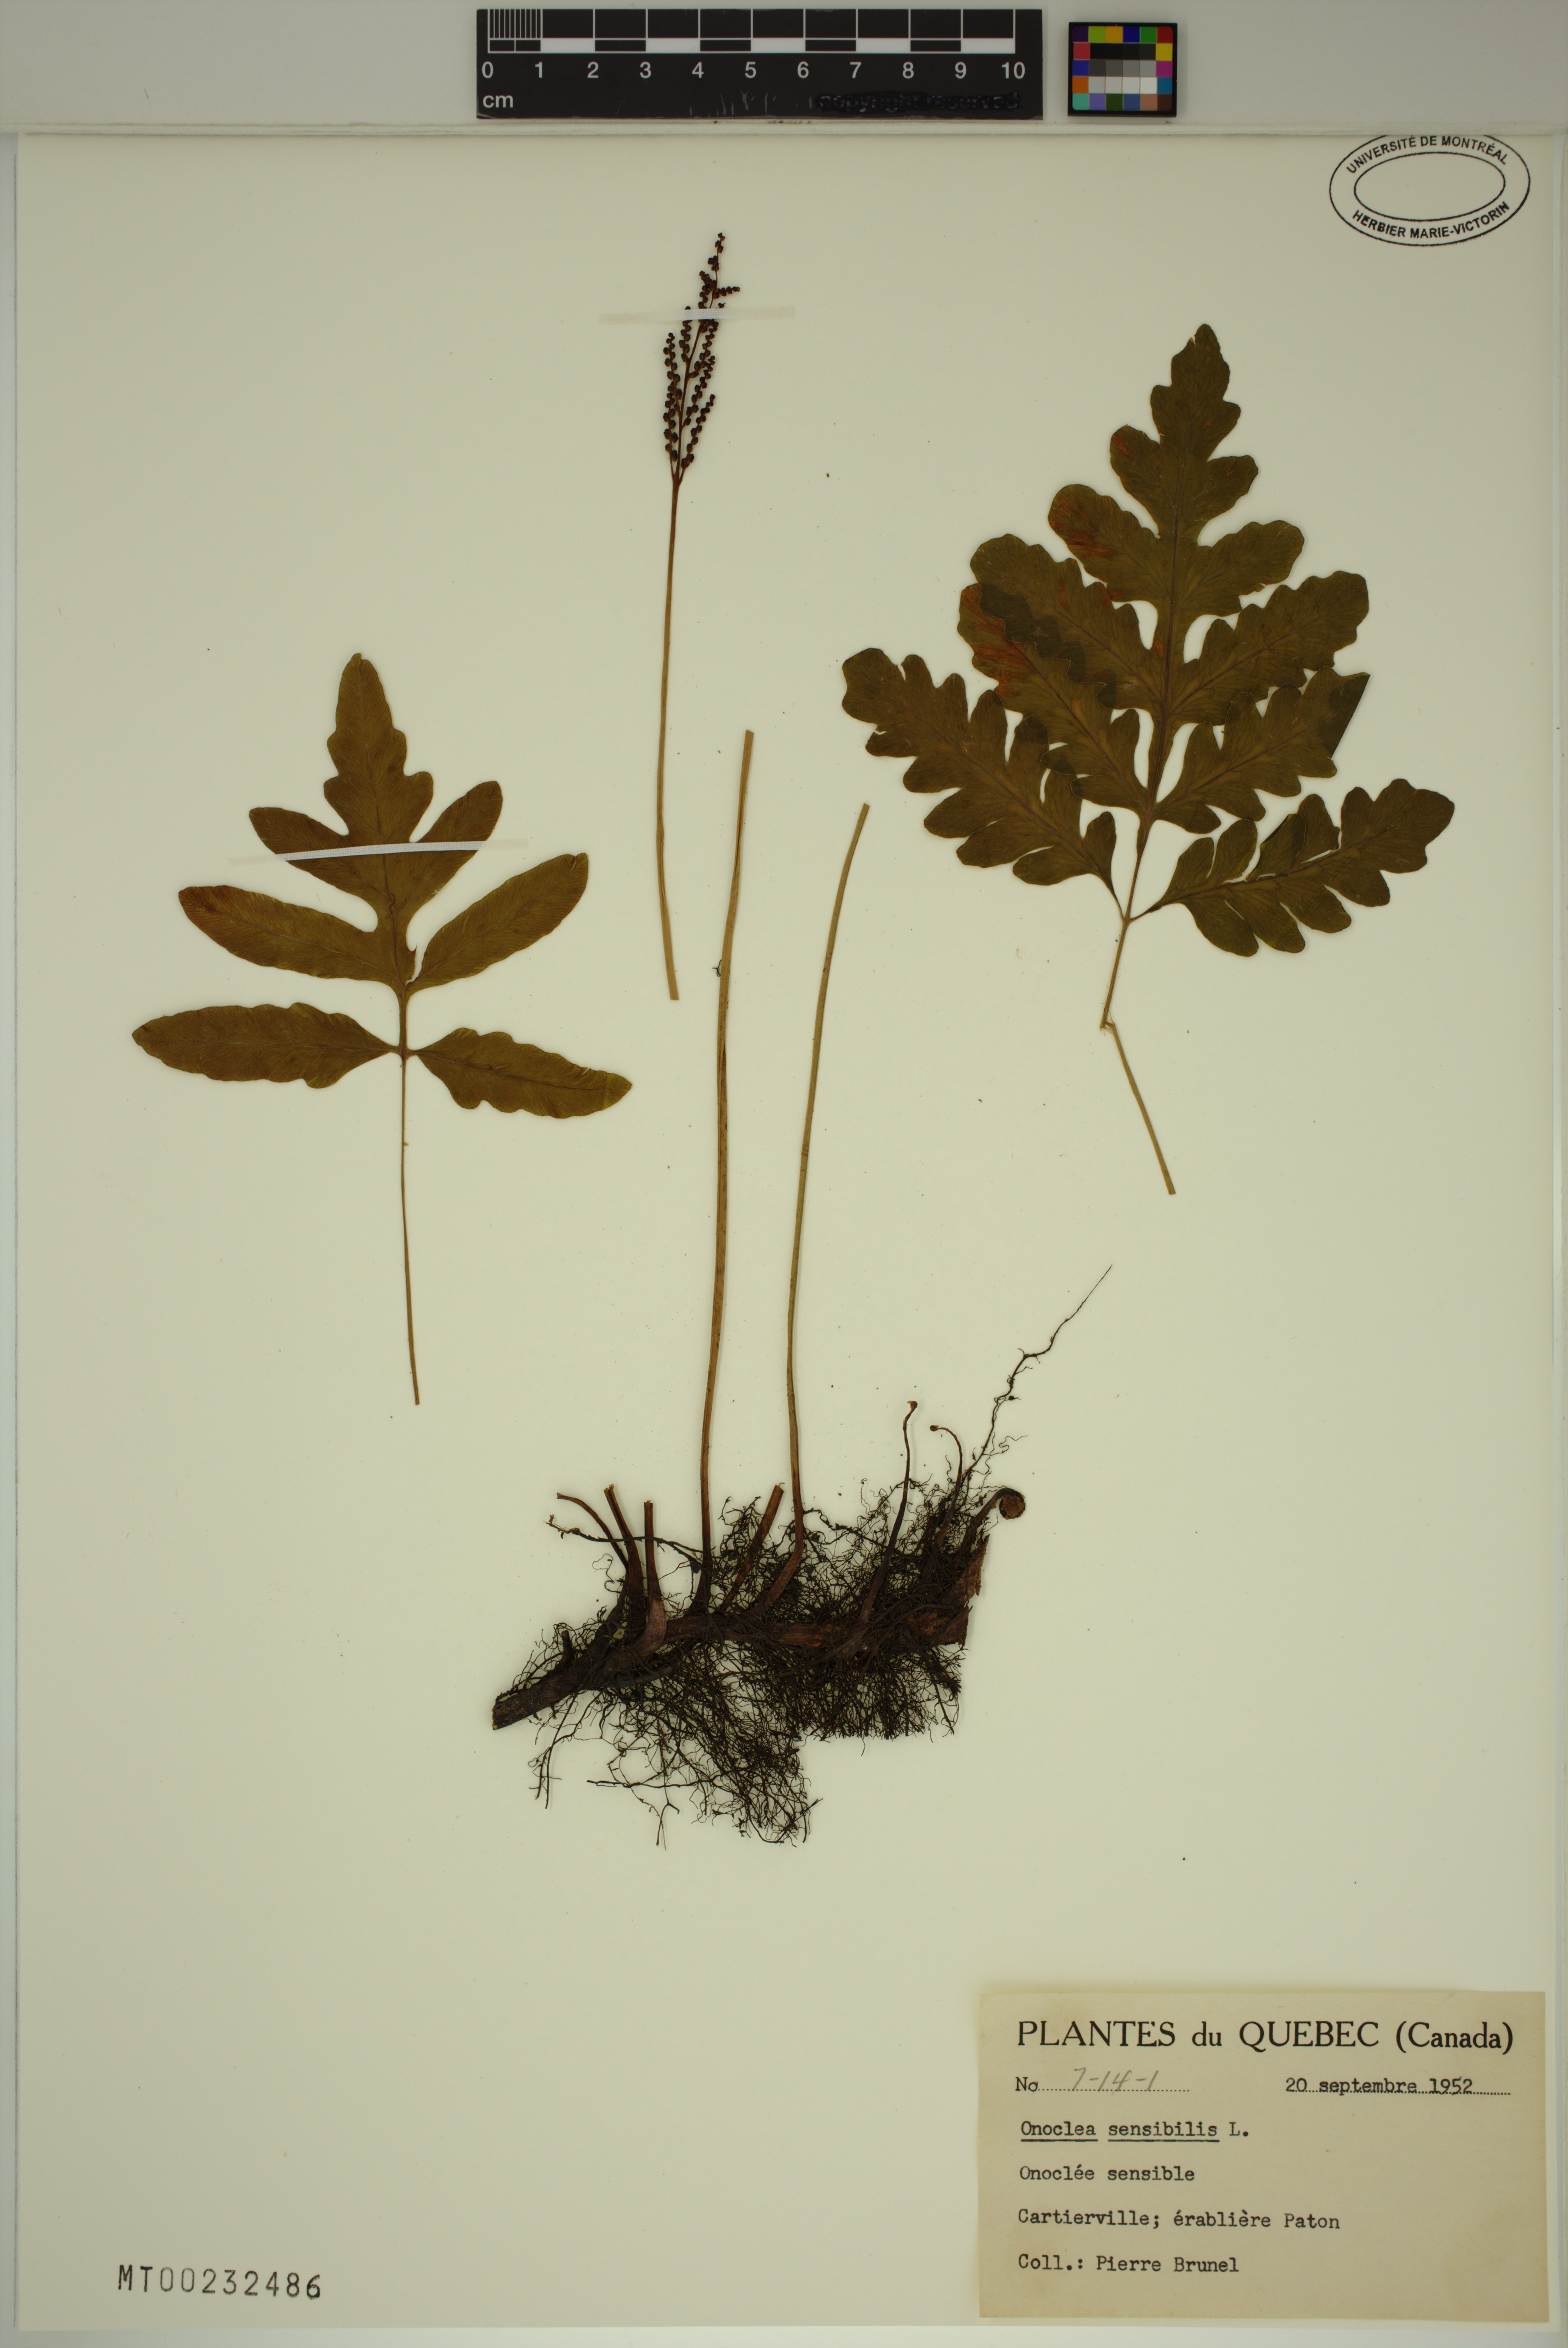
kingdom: Plantae
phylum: Tracheophyta
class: Polypodiopsida
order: Polypodiales
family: Onocleaceae
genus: Onoclea
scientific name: Onoclea sensibilis
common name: Sensitive fern
